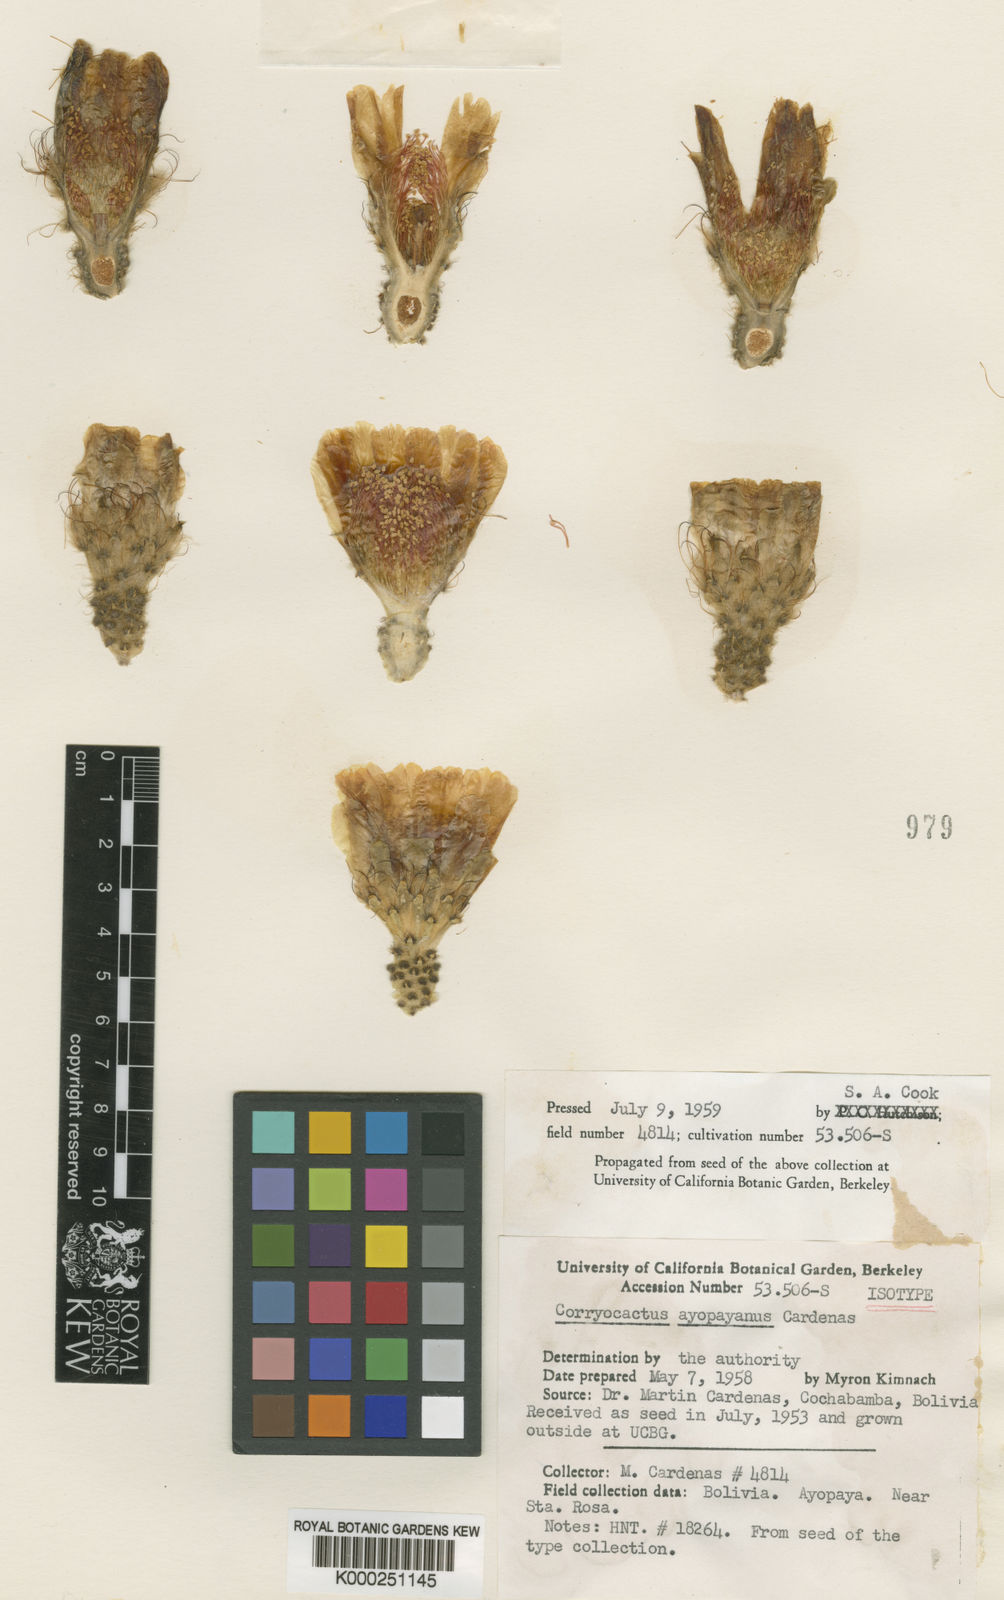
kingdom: Plantae
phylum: Tracheophyta
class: Magnoliopsida
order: Caryophyllales
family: Cactaceae
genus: Corryocactus
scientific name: Corryocactus
